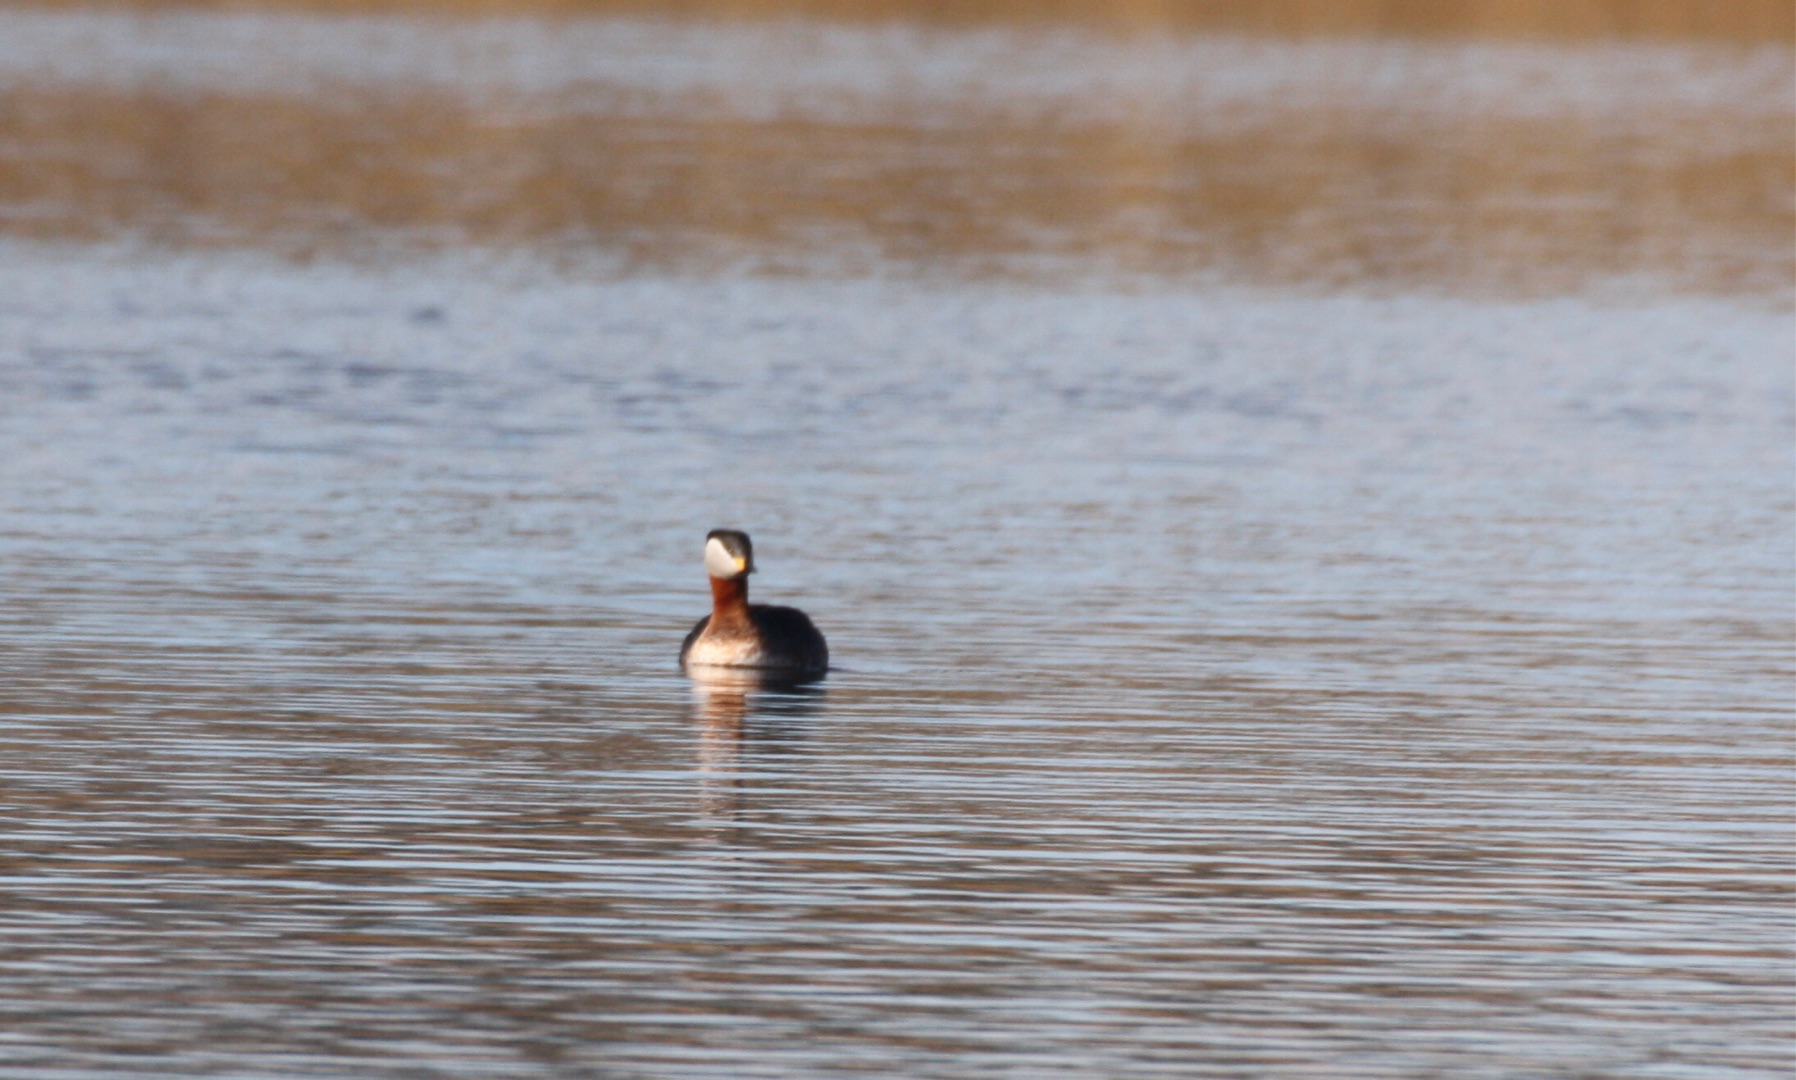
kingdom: Animalia
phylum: Chordata
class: Aves
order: Podicipediformes
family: Podicipedidae
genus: Podiceps
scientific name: Podiceps grisegena
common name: Gråstrubet lappedykker
